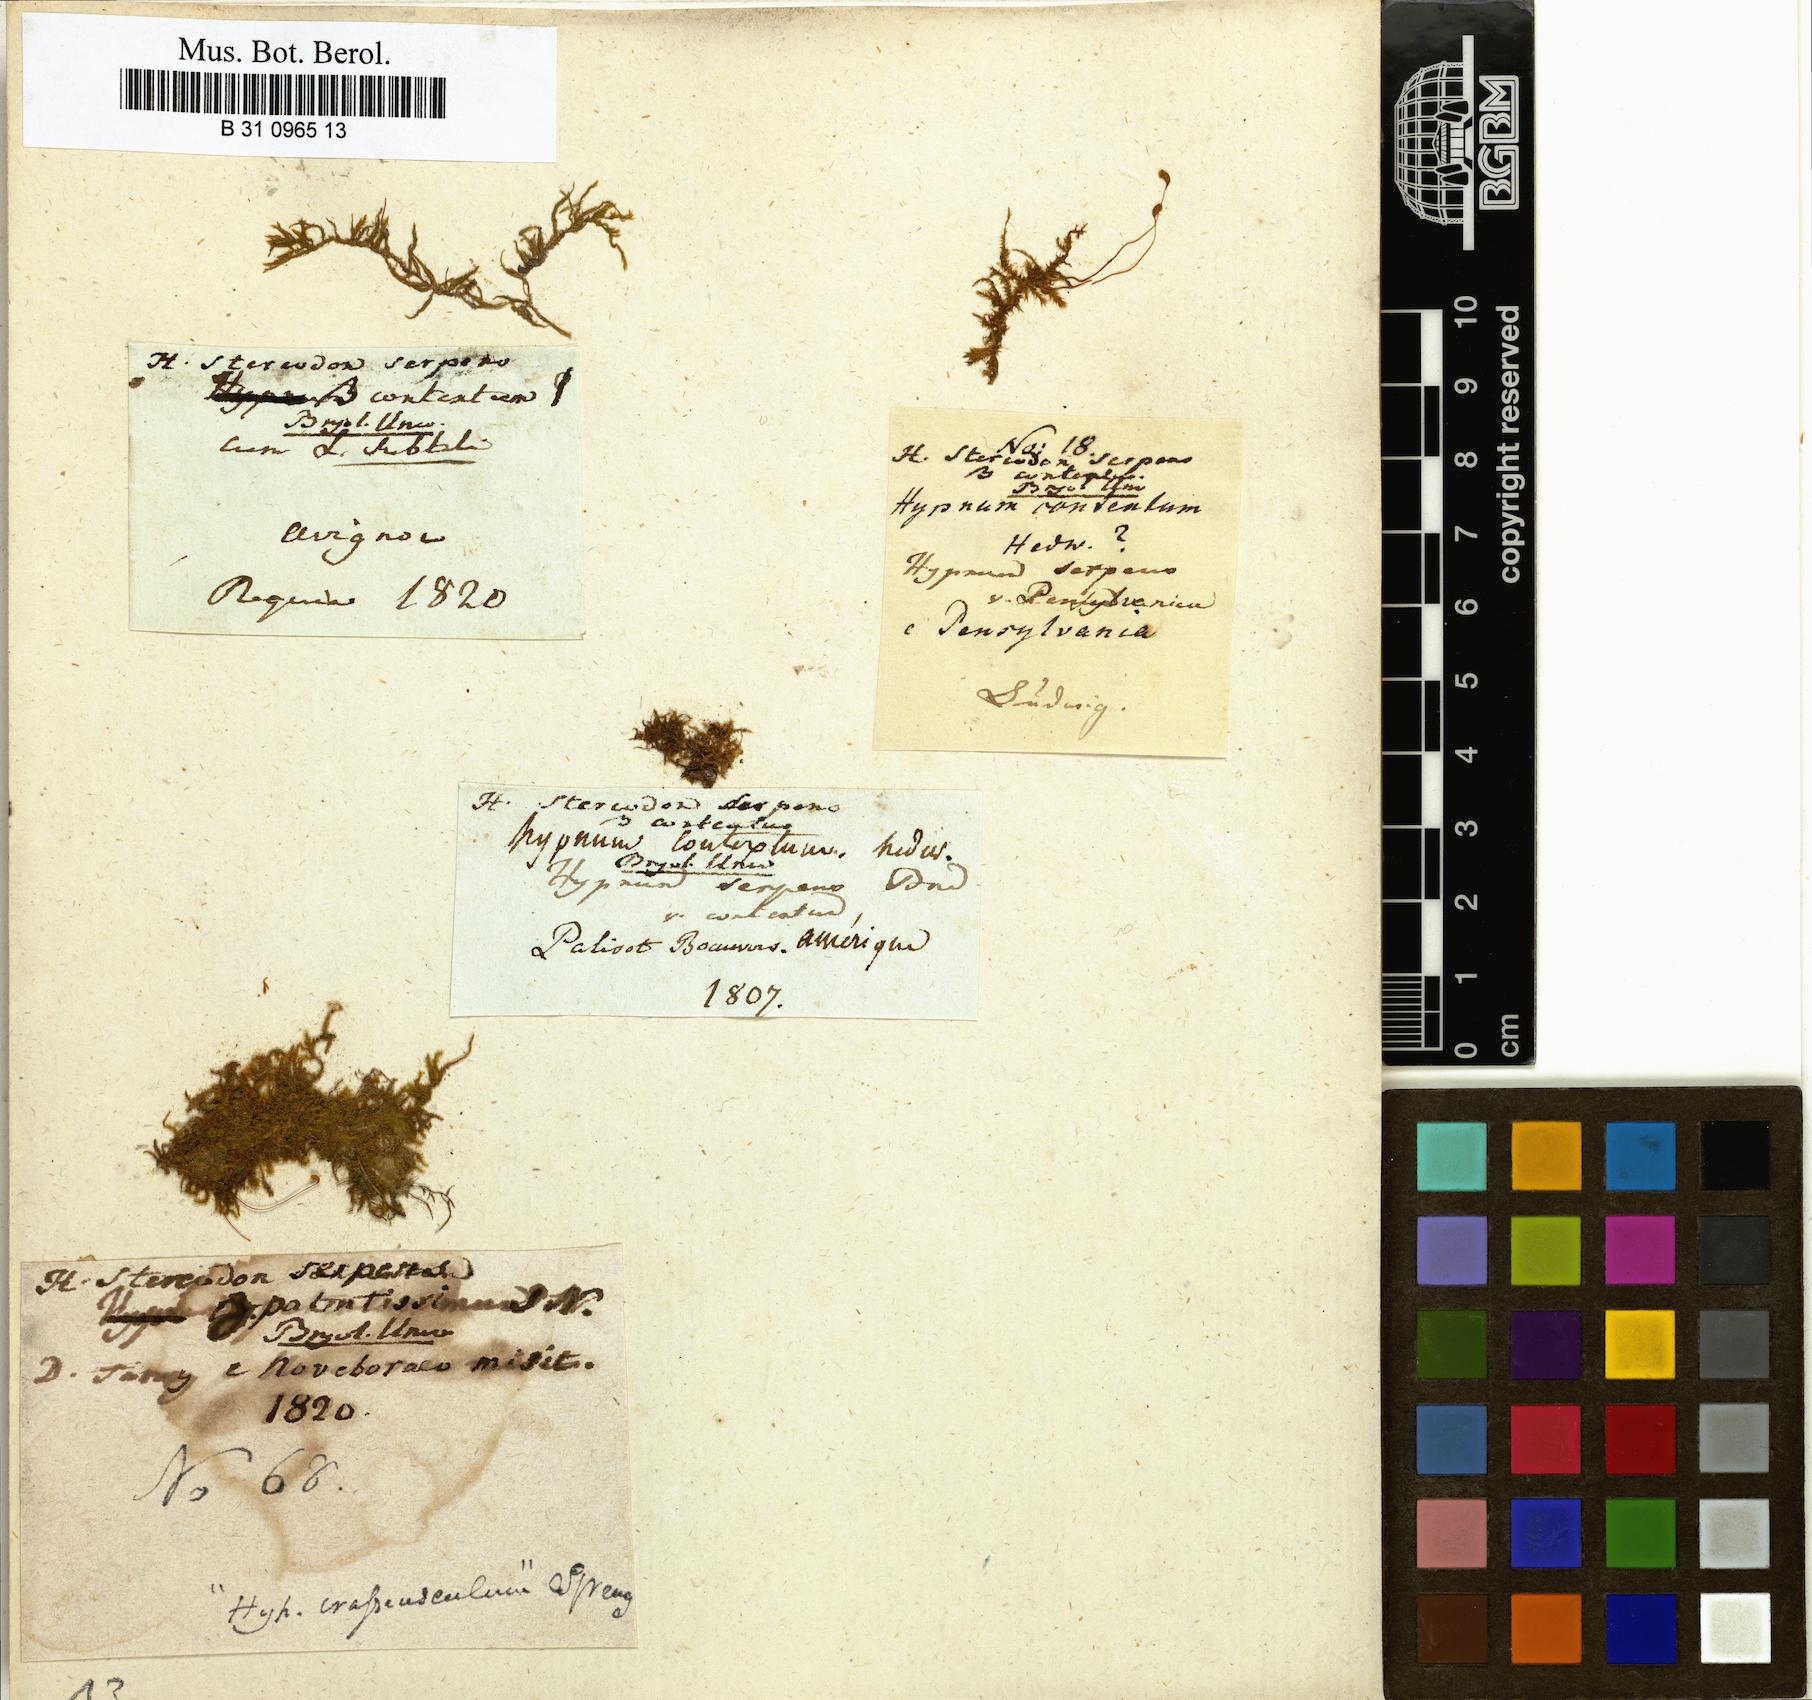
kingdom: Plantae
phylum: Bryophyta
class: Bryopsida
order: Hypnales
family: Amblystegiaceae
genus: Amblystegium
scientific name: Amblystegium serpens
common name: Jurkatzka's feather moss
